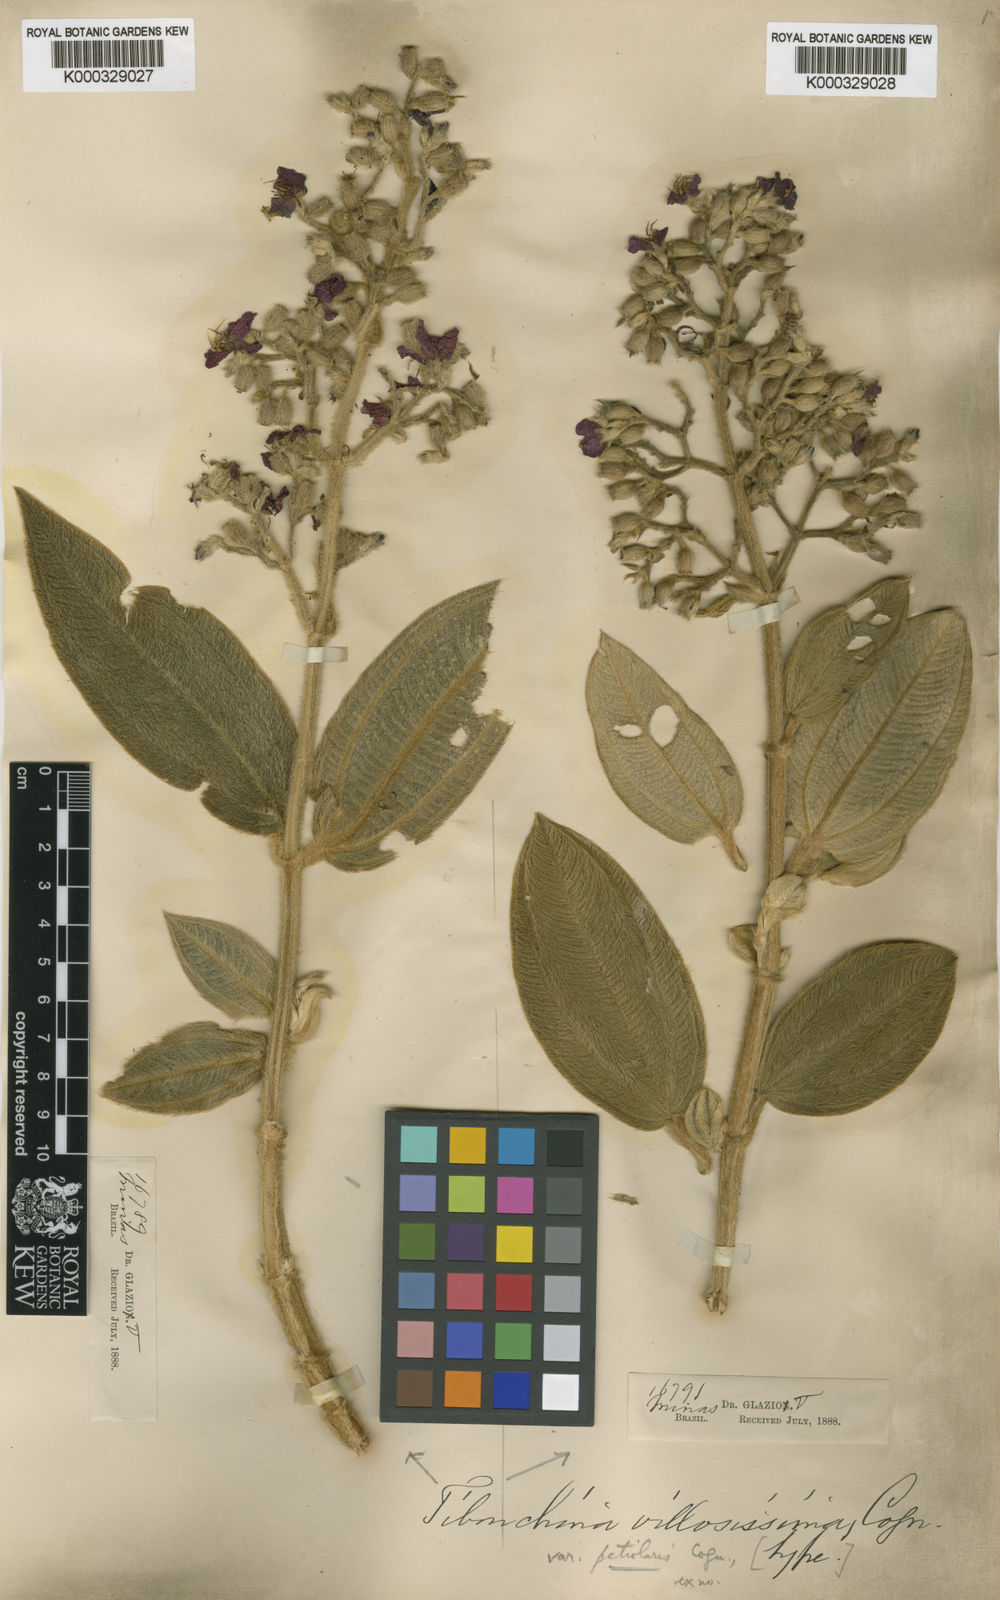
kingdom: Plantae
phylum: Tracheophyta
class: Magnoliopsida
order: Myrtales
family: Melastomataceae
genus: Pleroma
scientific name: Pleroma villosissimum
